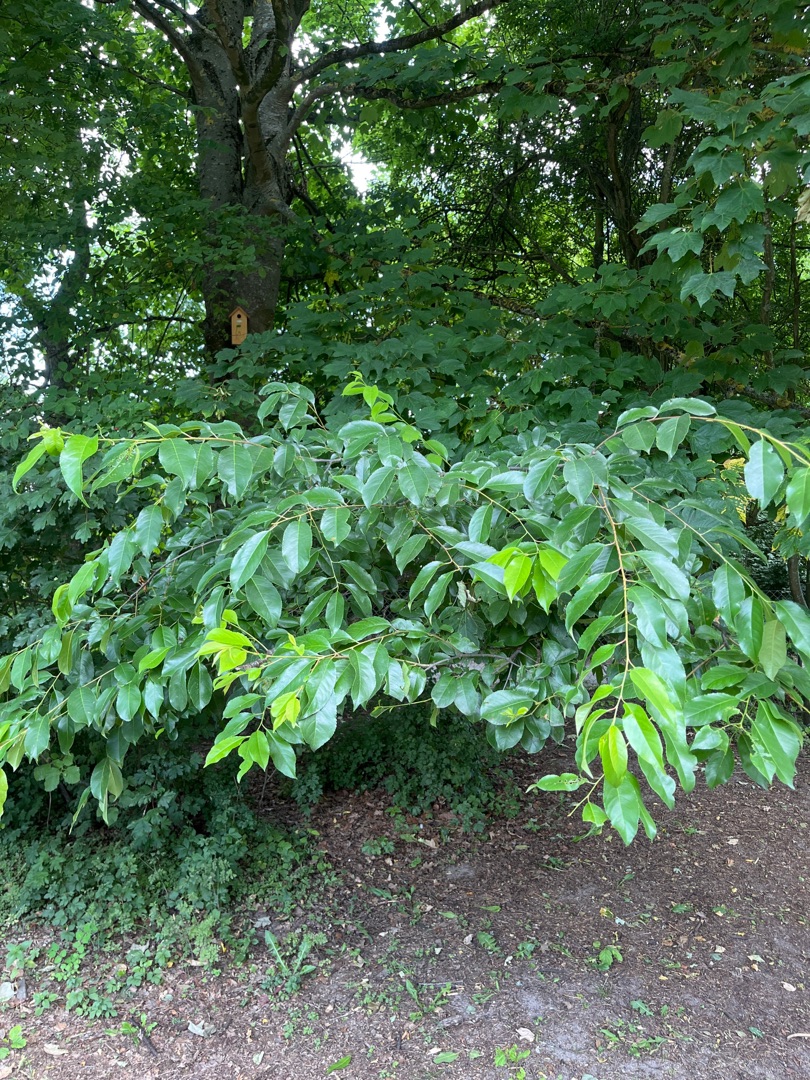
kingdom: Plantae
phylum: Tracheophyta
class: Magnoliopsida
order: Rosales
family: Rosaceae
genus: Prunus
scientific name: Prunus serotina
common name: Glansbladet hæg
